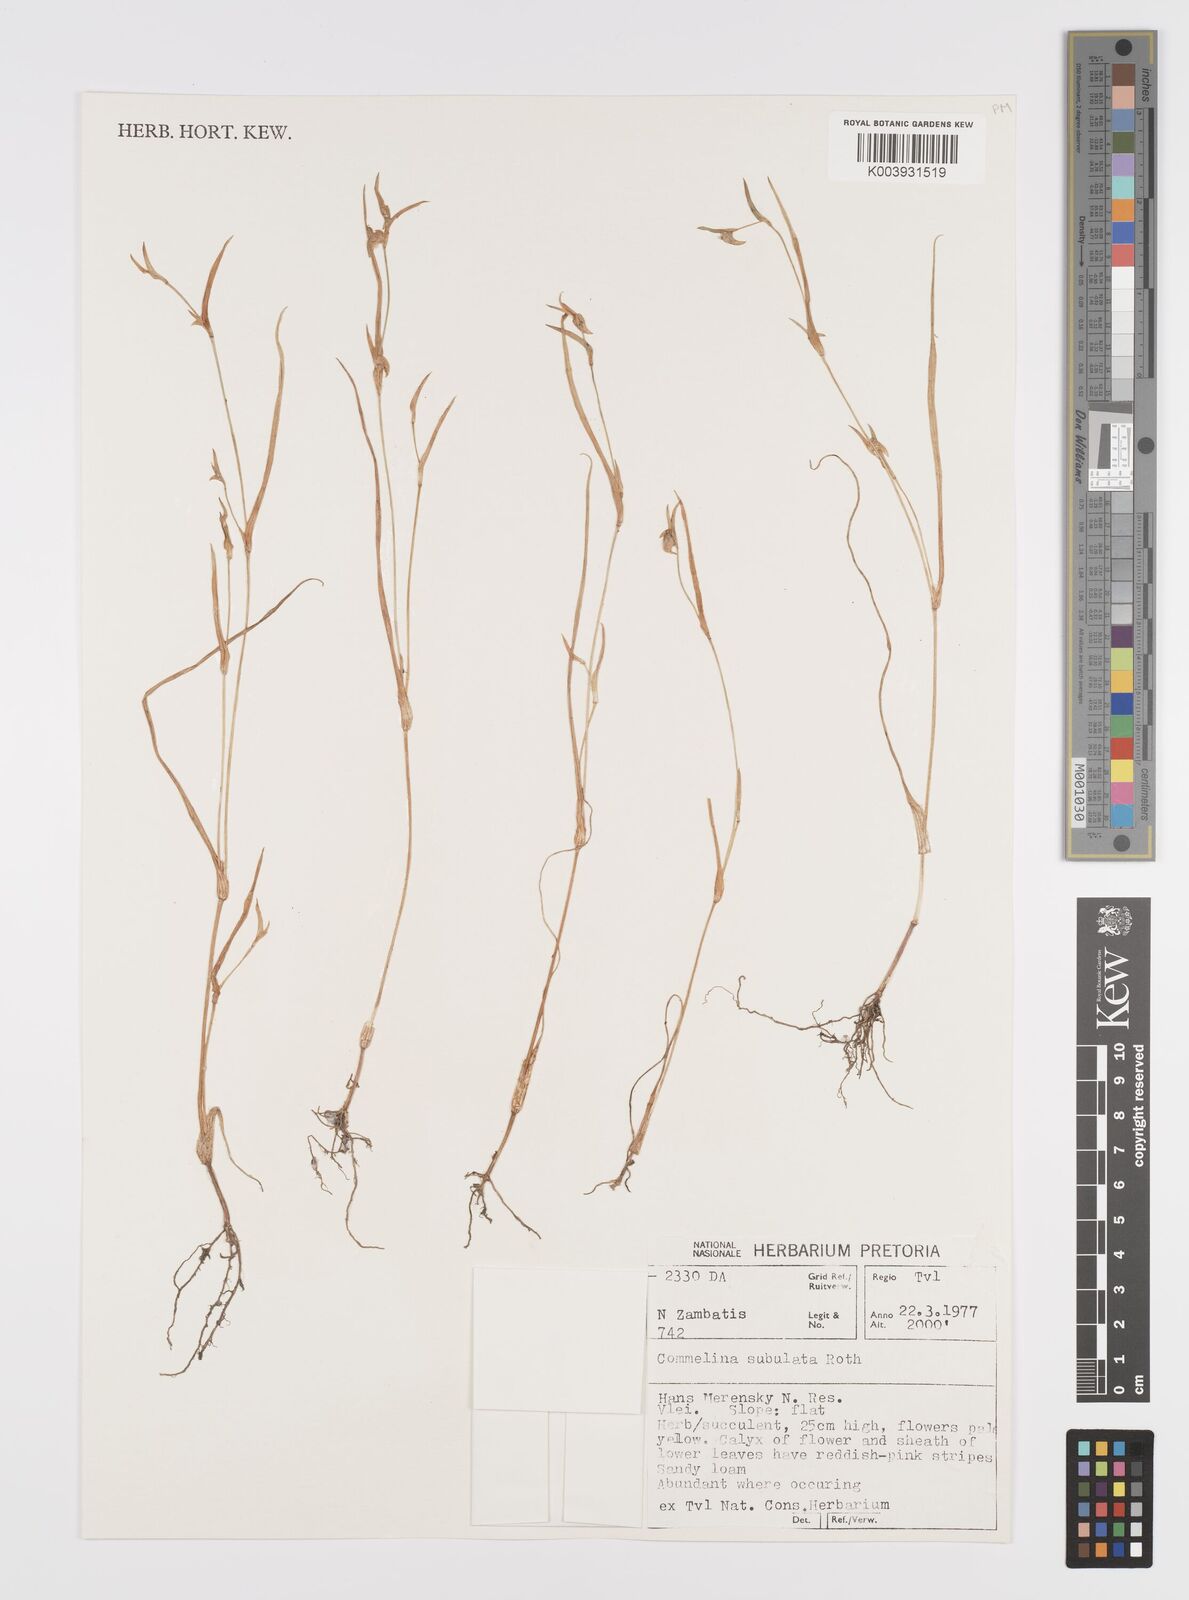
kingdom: Plantae
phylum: Tracheophyta
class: Liliopsida
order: Commelinales
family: Commelinaceae
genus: Commelina
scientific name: Commelina subulata
